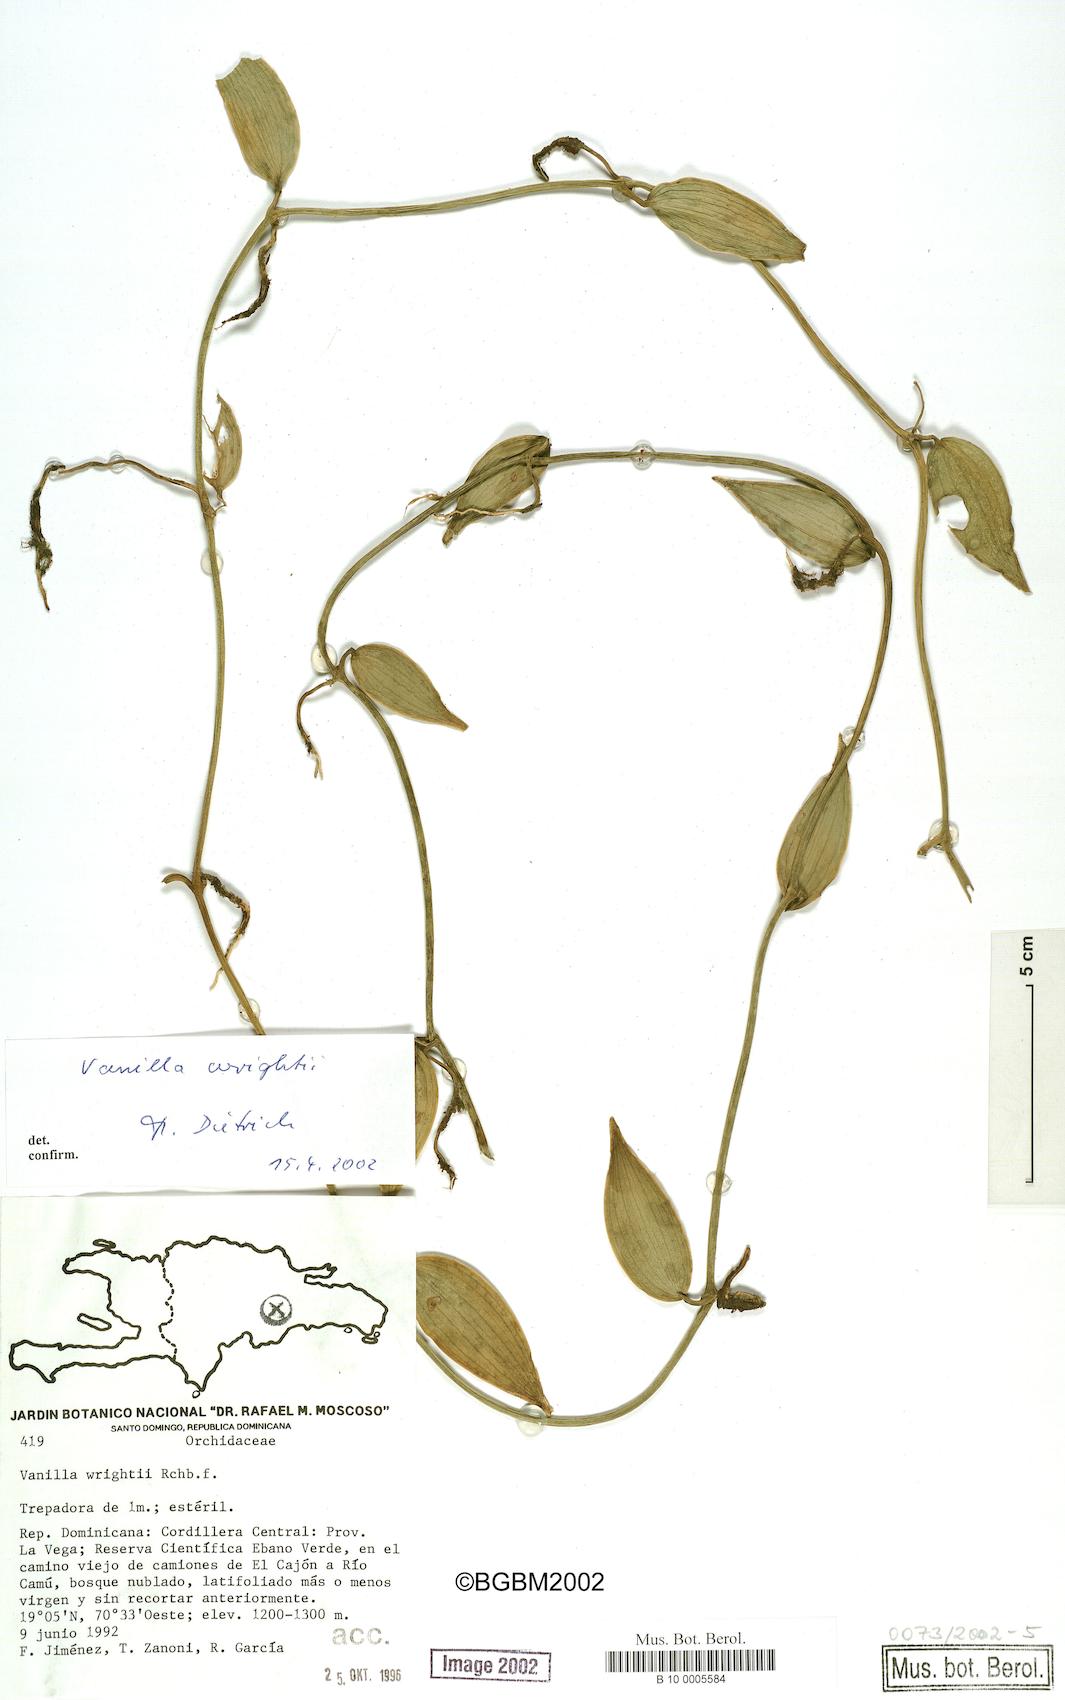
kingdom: Plantae
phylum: Tracheophyta
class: Liliopsida
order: Asparagales
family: Orchidaceae
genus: Vanilla
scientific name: Vanilla bicolor
